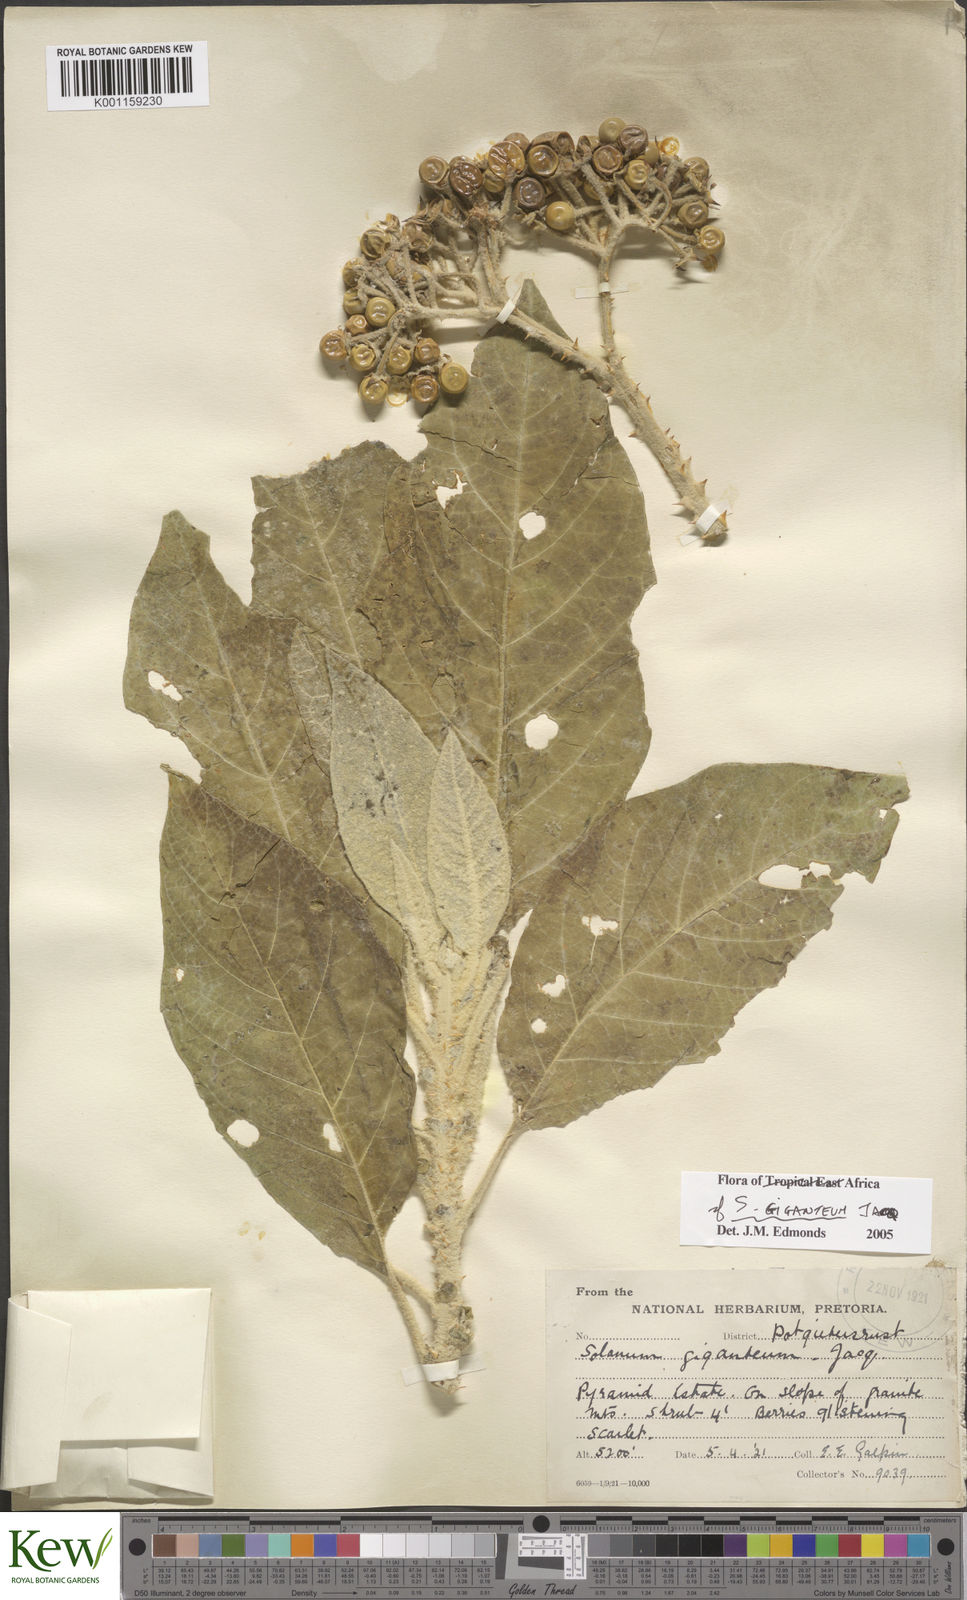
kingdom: Plantae
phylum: Tracheophyta
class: Magnoliopsida
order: Solanales
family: Solanaceae
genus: Solanum
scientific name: Solanum giganteum
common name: Healing-leaf-tree
